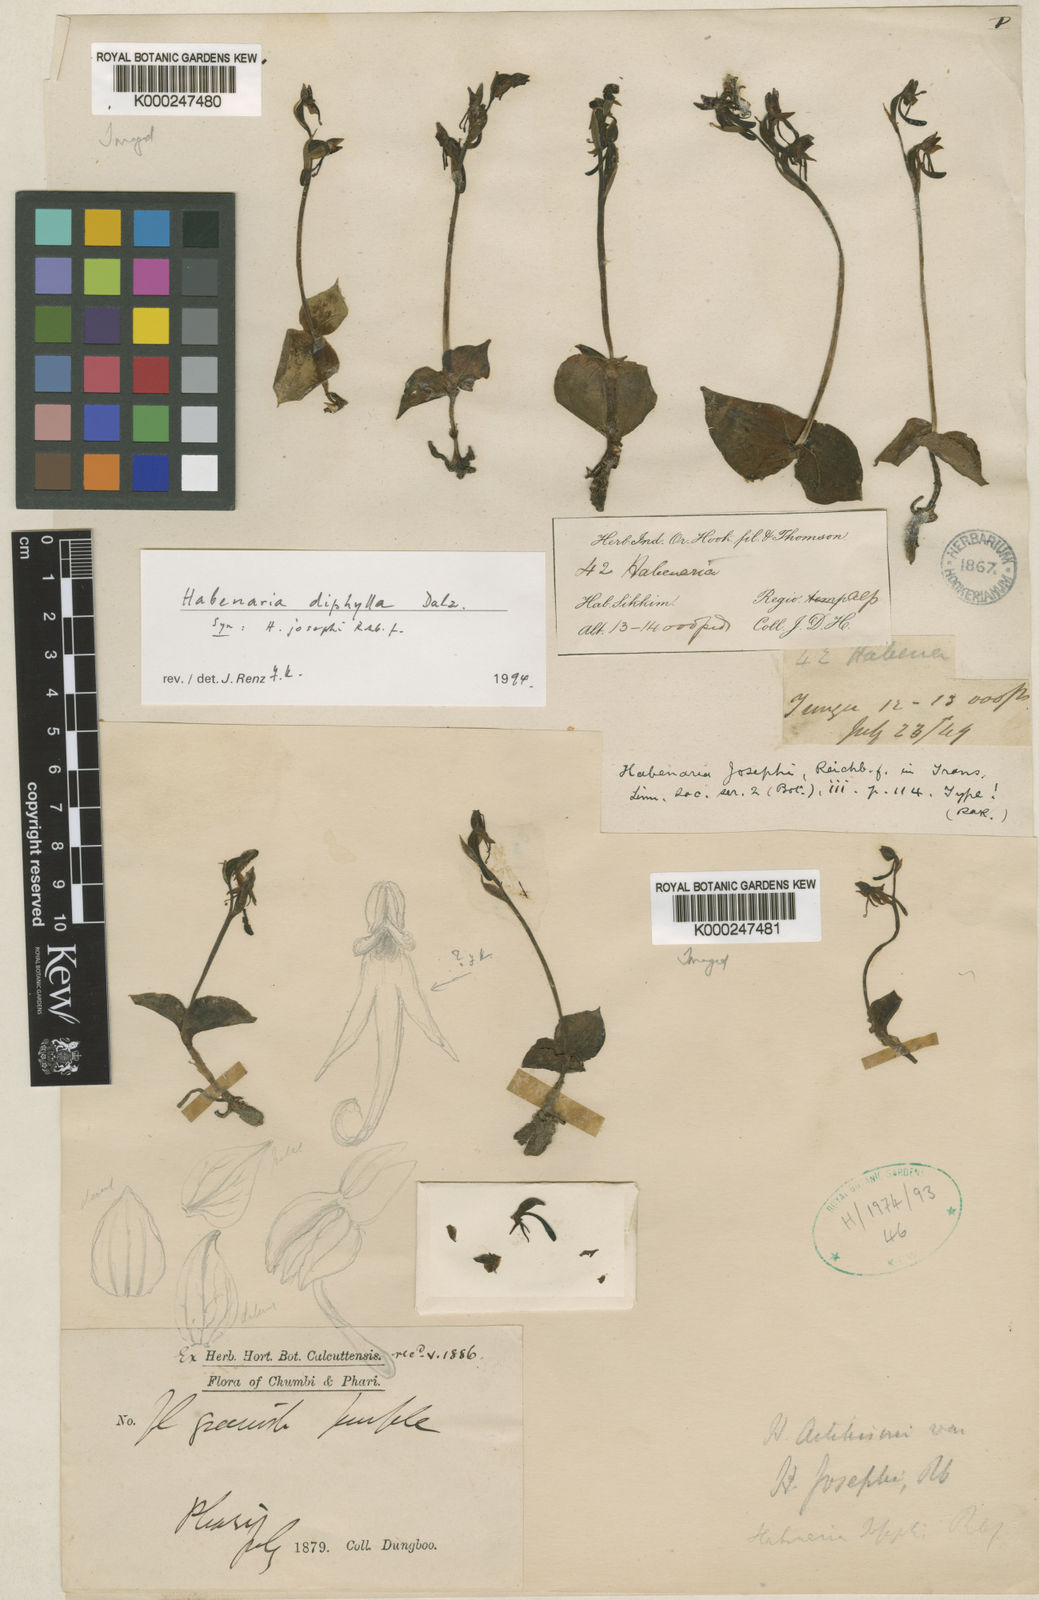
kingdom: Plantae
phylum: Tracheophyta
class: Liliopsida
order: Asparagales
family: Orchidaceae
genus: Habenaria
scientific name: Habenaria diphylla
